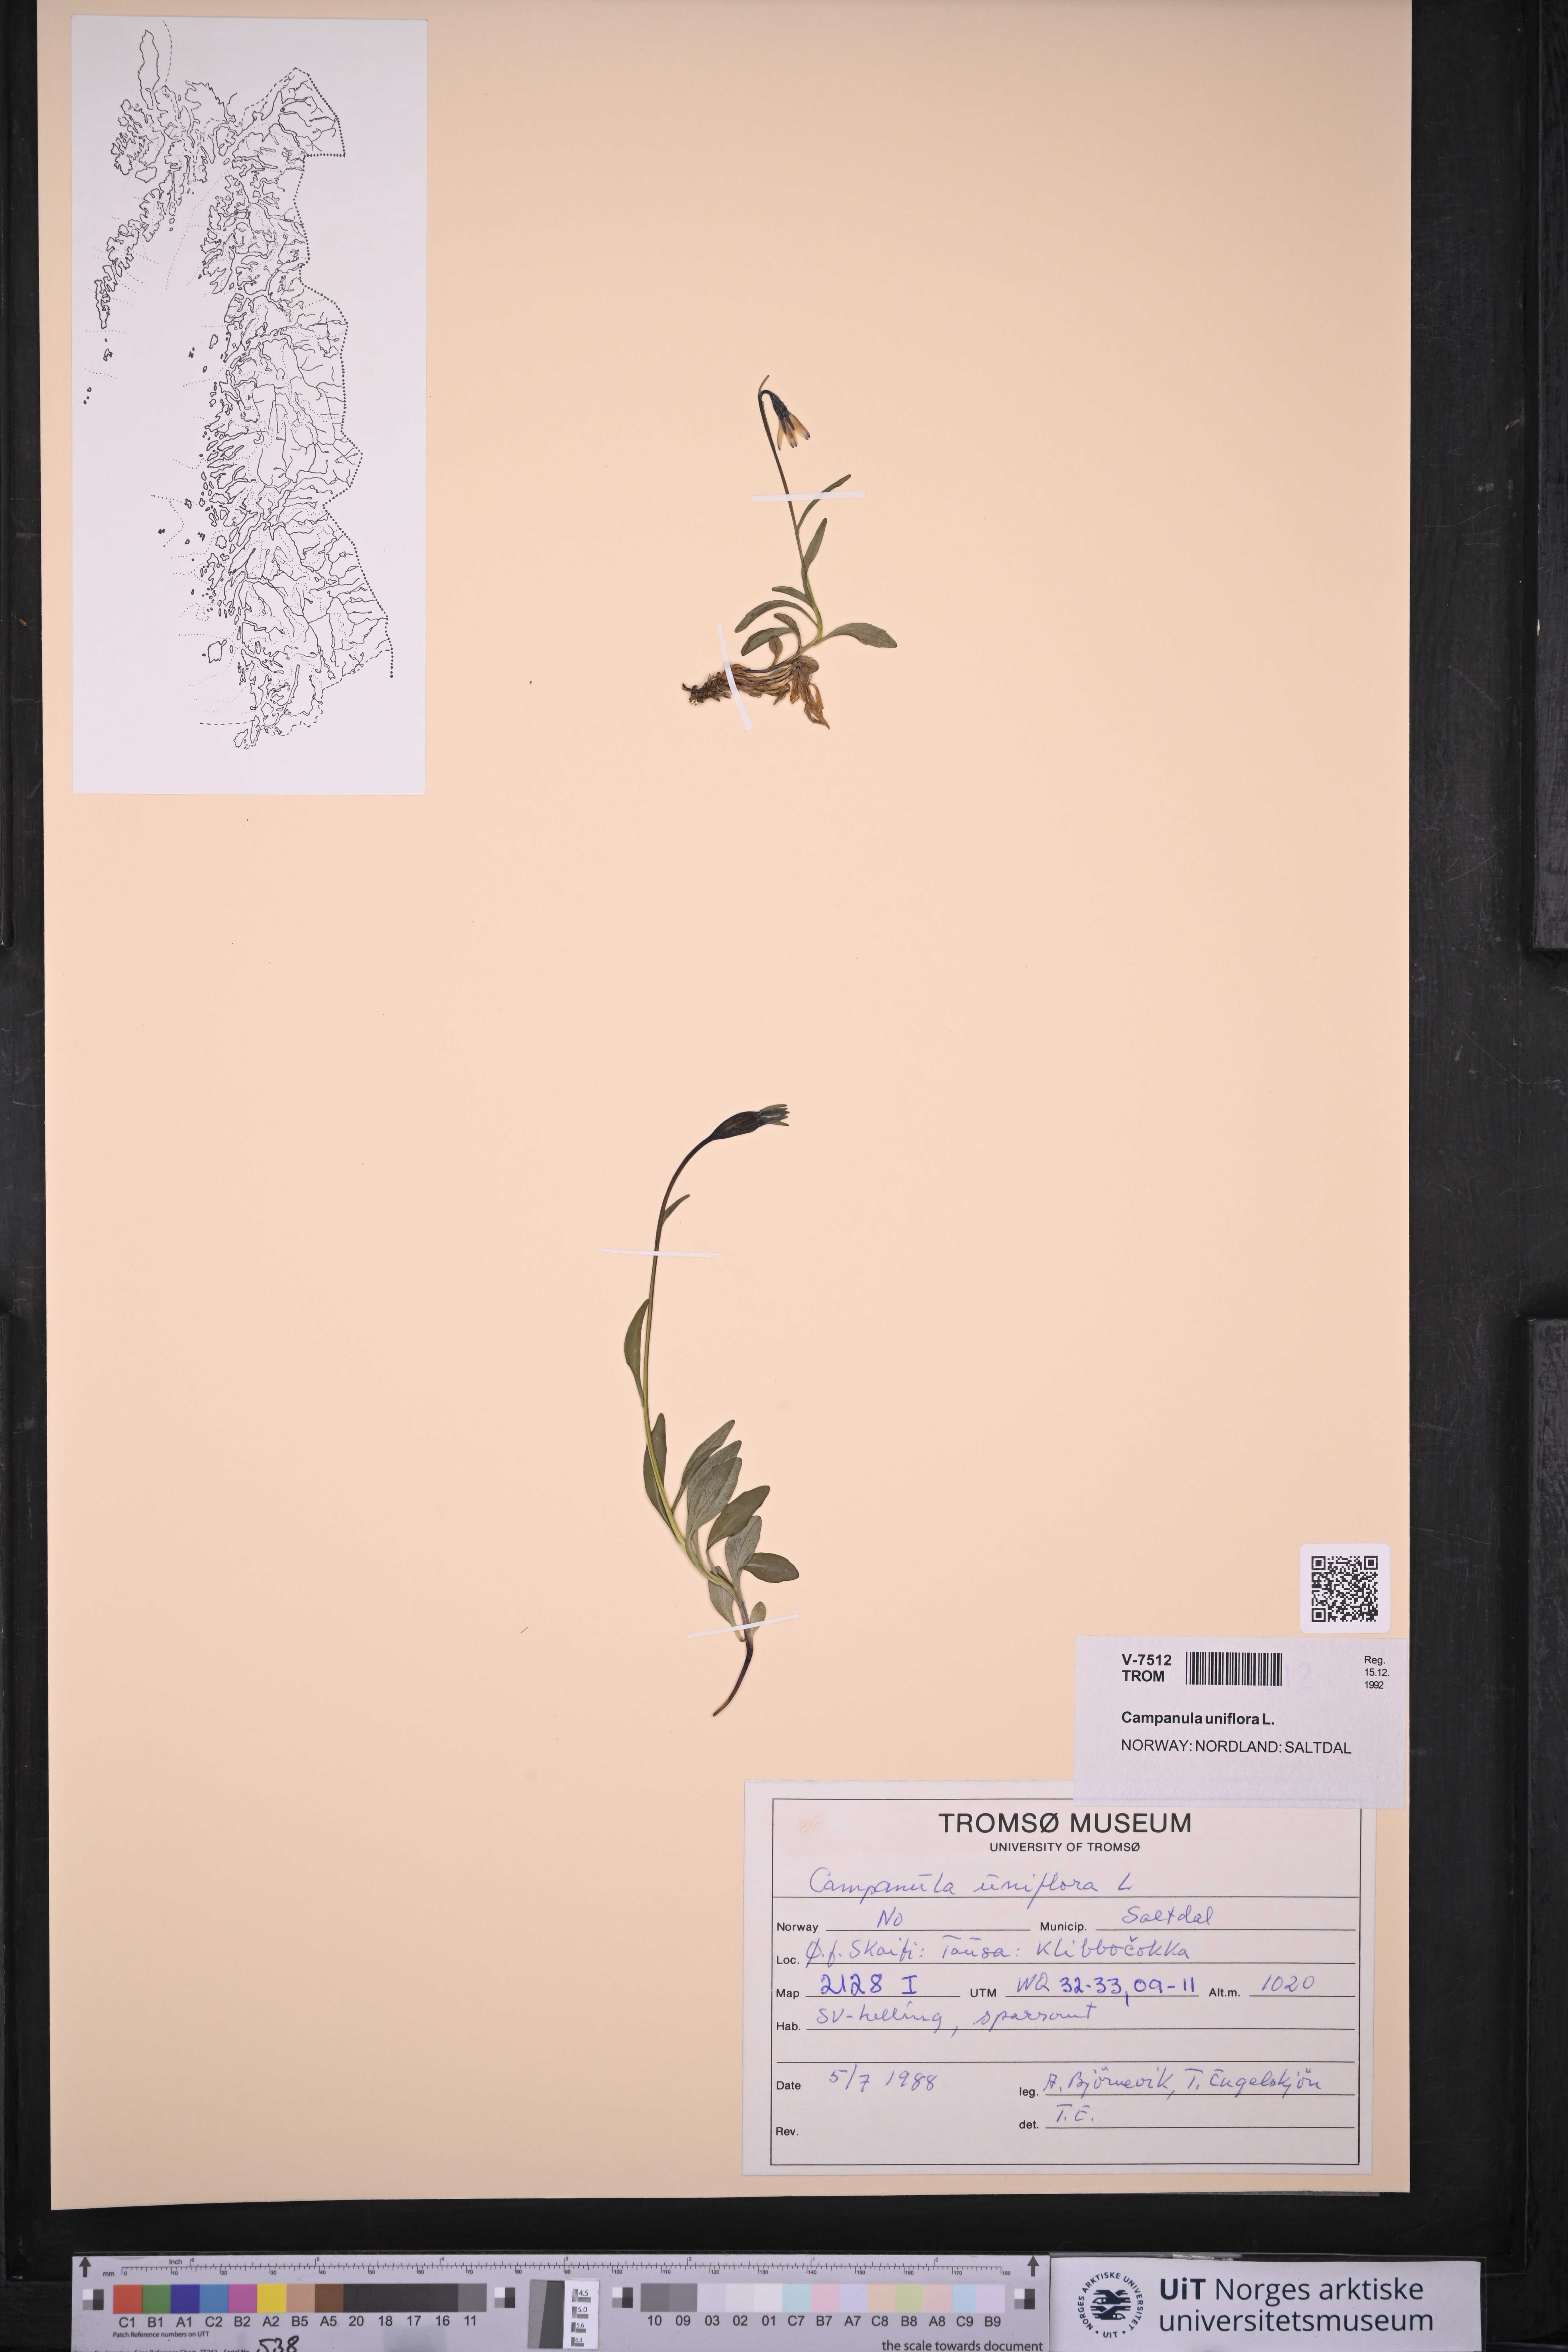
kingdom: Plantae
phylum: Tracheophyta
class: Magnoliopsida
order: Asterales
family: Campanulaceae
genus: Melanocalyx
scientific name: Melanocalyx uniflora
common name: Alpine harebell
